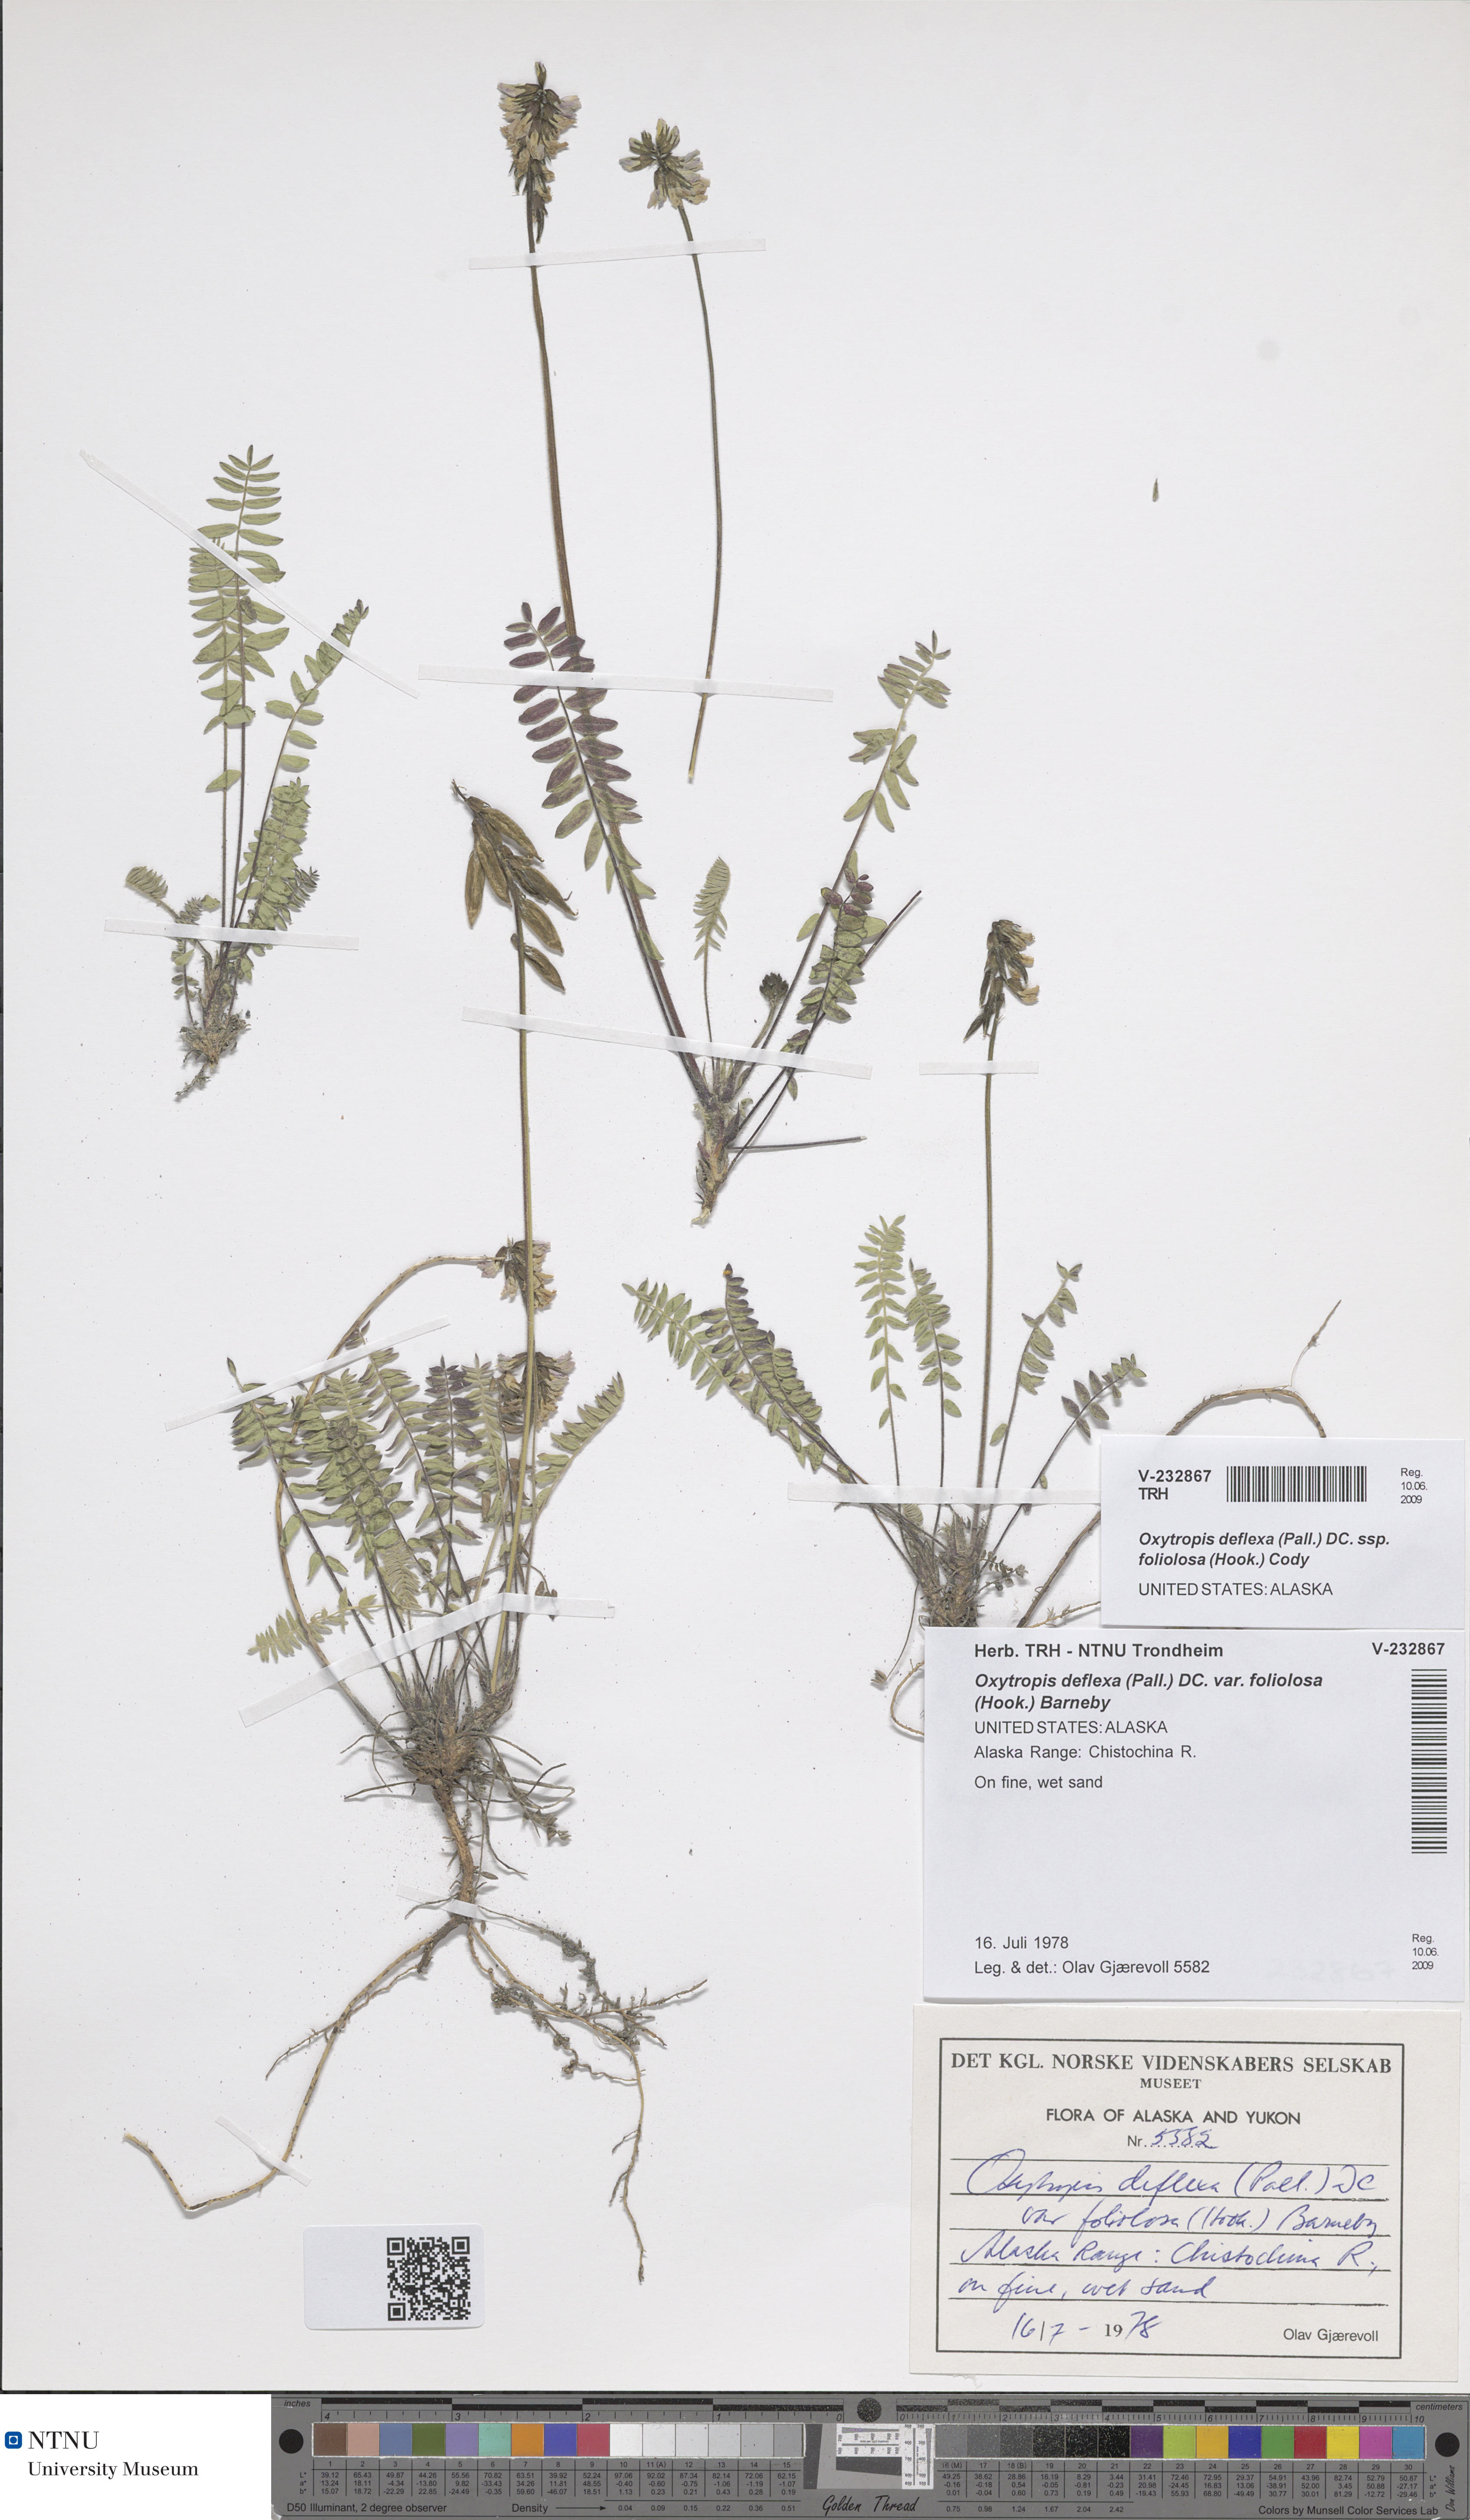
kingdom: Plantae
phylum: Tracheophyta
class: Magnoliopsida
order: Fabales
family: Fabaceae
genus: Oxytropis
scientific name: Oxytropis deflexa
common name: Stemmed oxytrope
